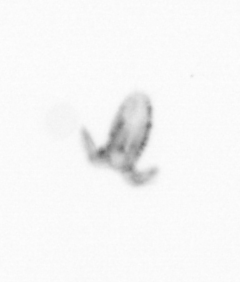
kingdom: Animalia
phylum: Arthropoda
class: Copepoda
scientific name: Copepoda
